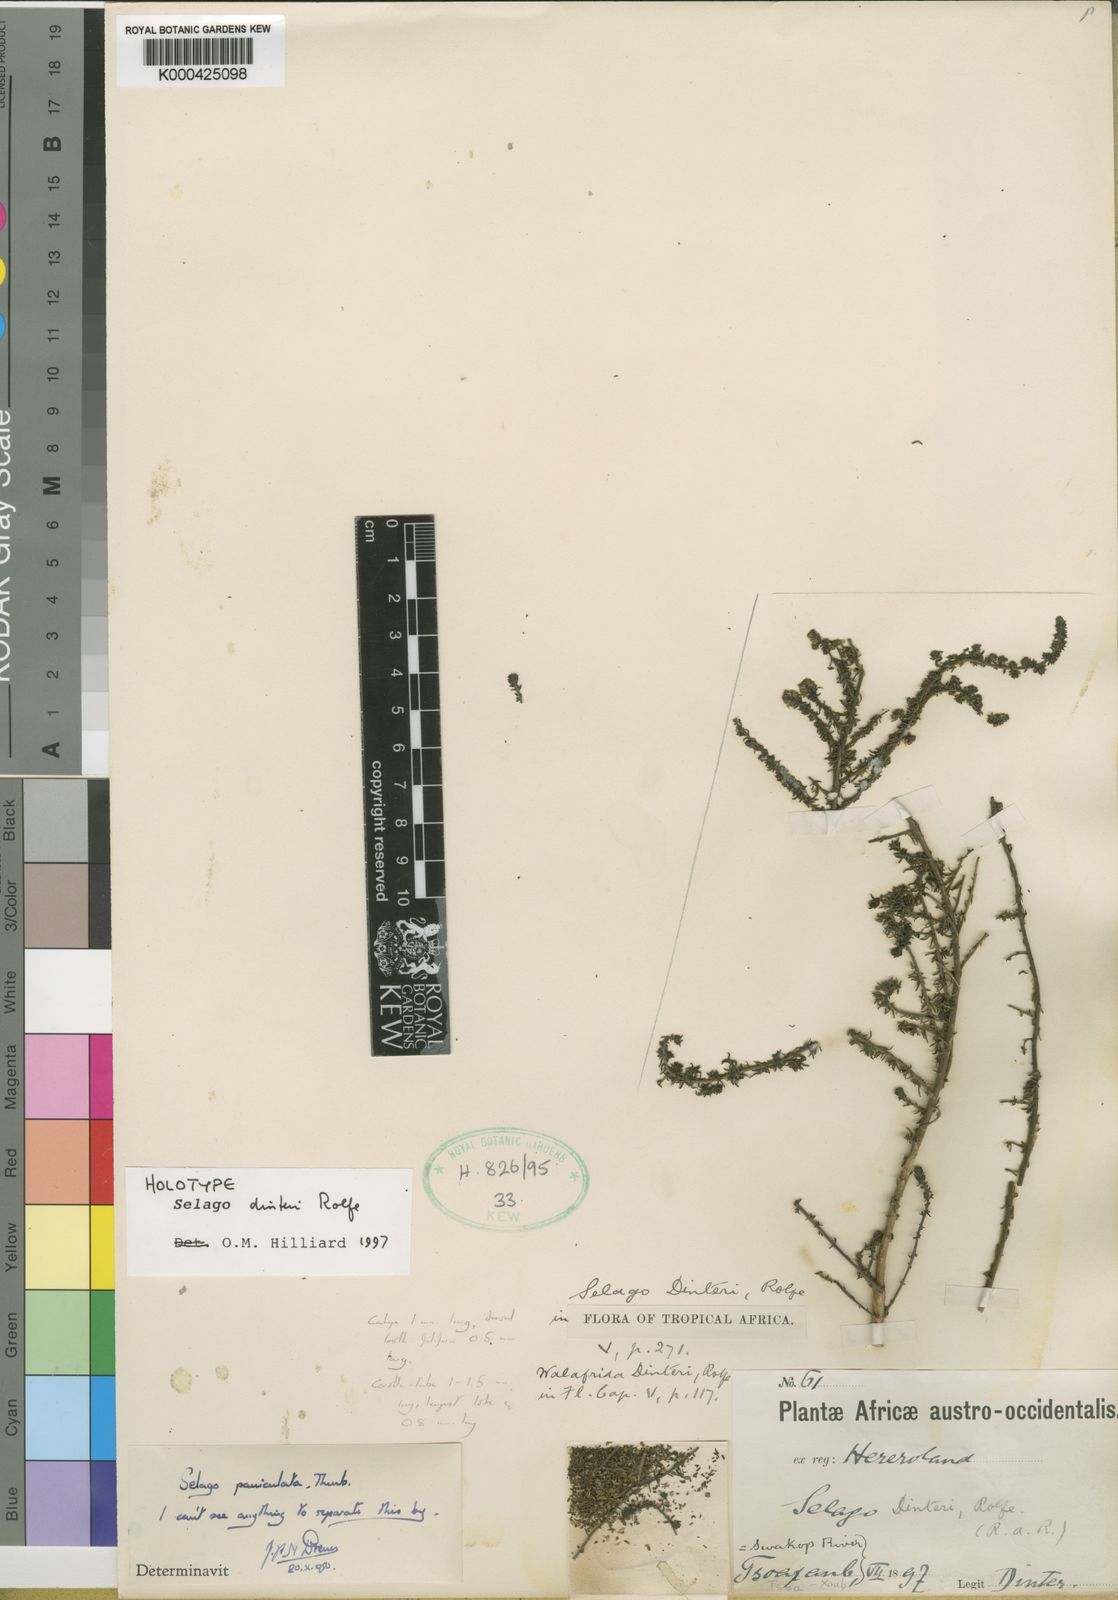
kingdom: Plantae
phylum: Tracheophyta
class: Magnoliopsida
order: Lamiales
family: Scrophulariaceae
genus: Selago
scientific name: Selago dinteri
